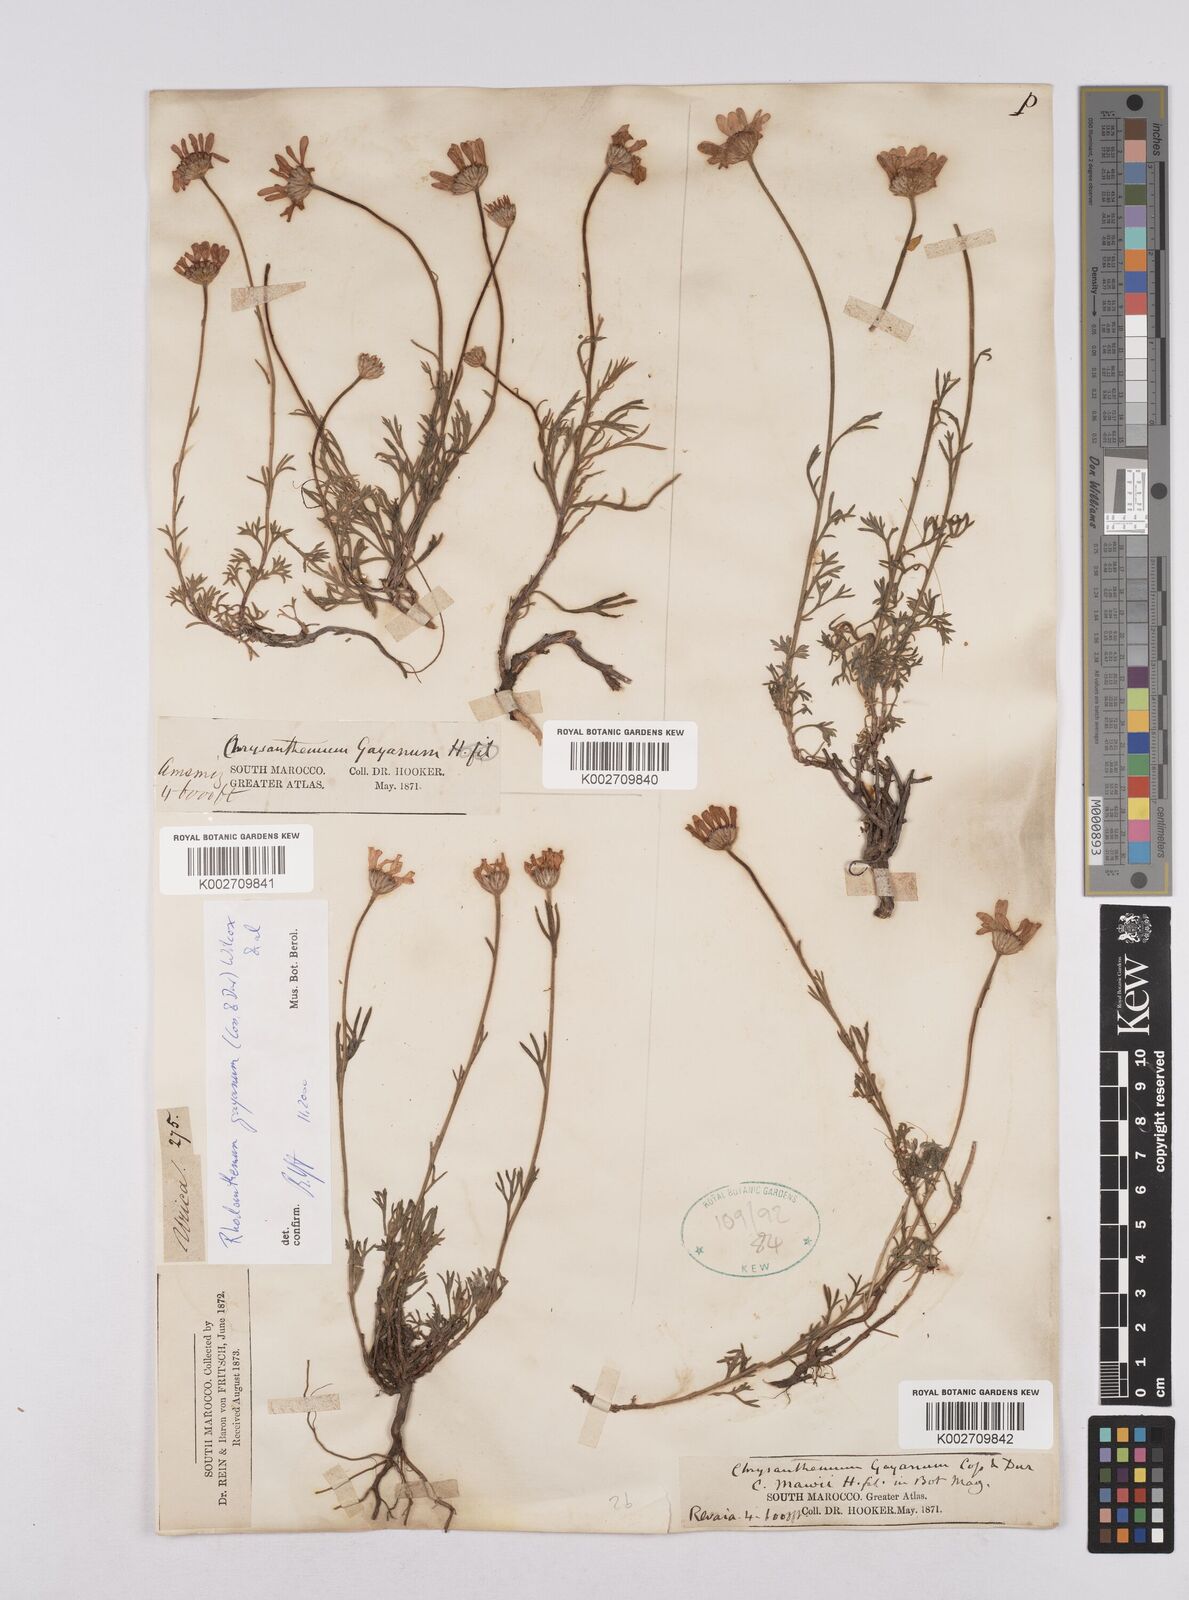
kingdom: Plantae
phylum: Tracheophyta
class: Magnoliopsida
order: Asterales
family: Asteraceae
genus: Rhodanthemum
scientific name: Rhodanthemum gayanum
